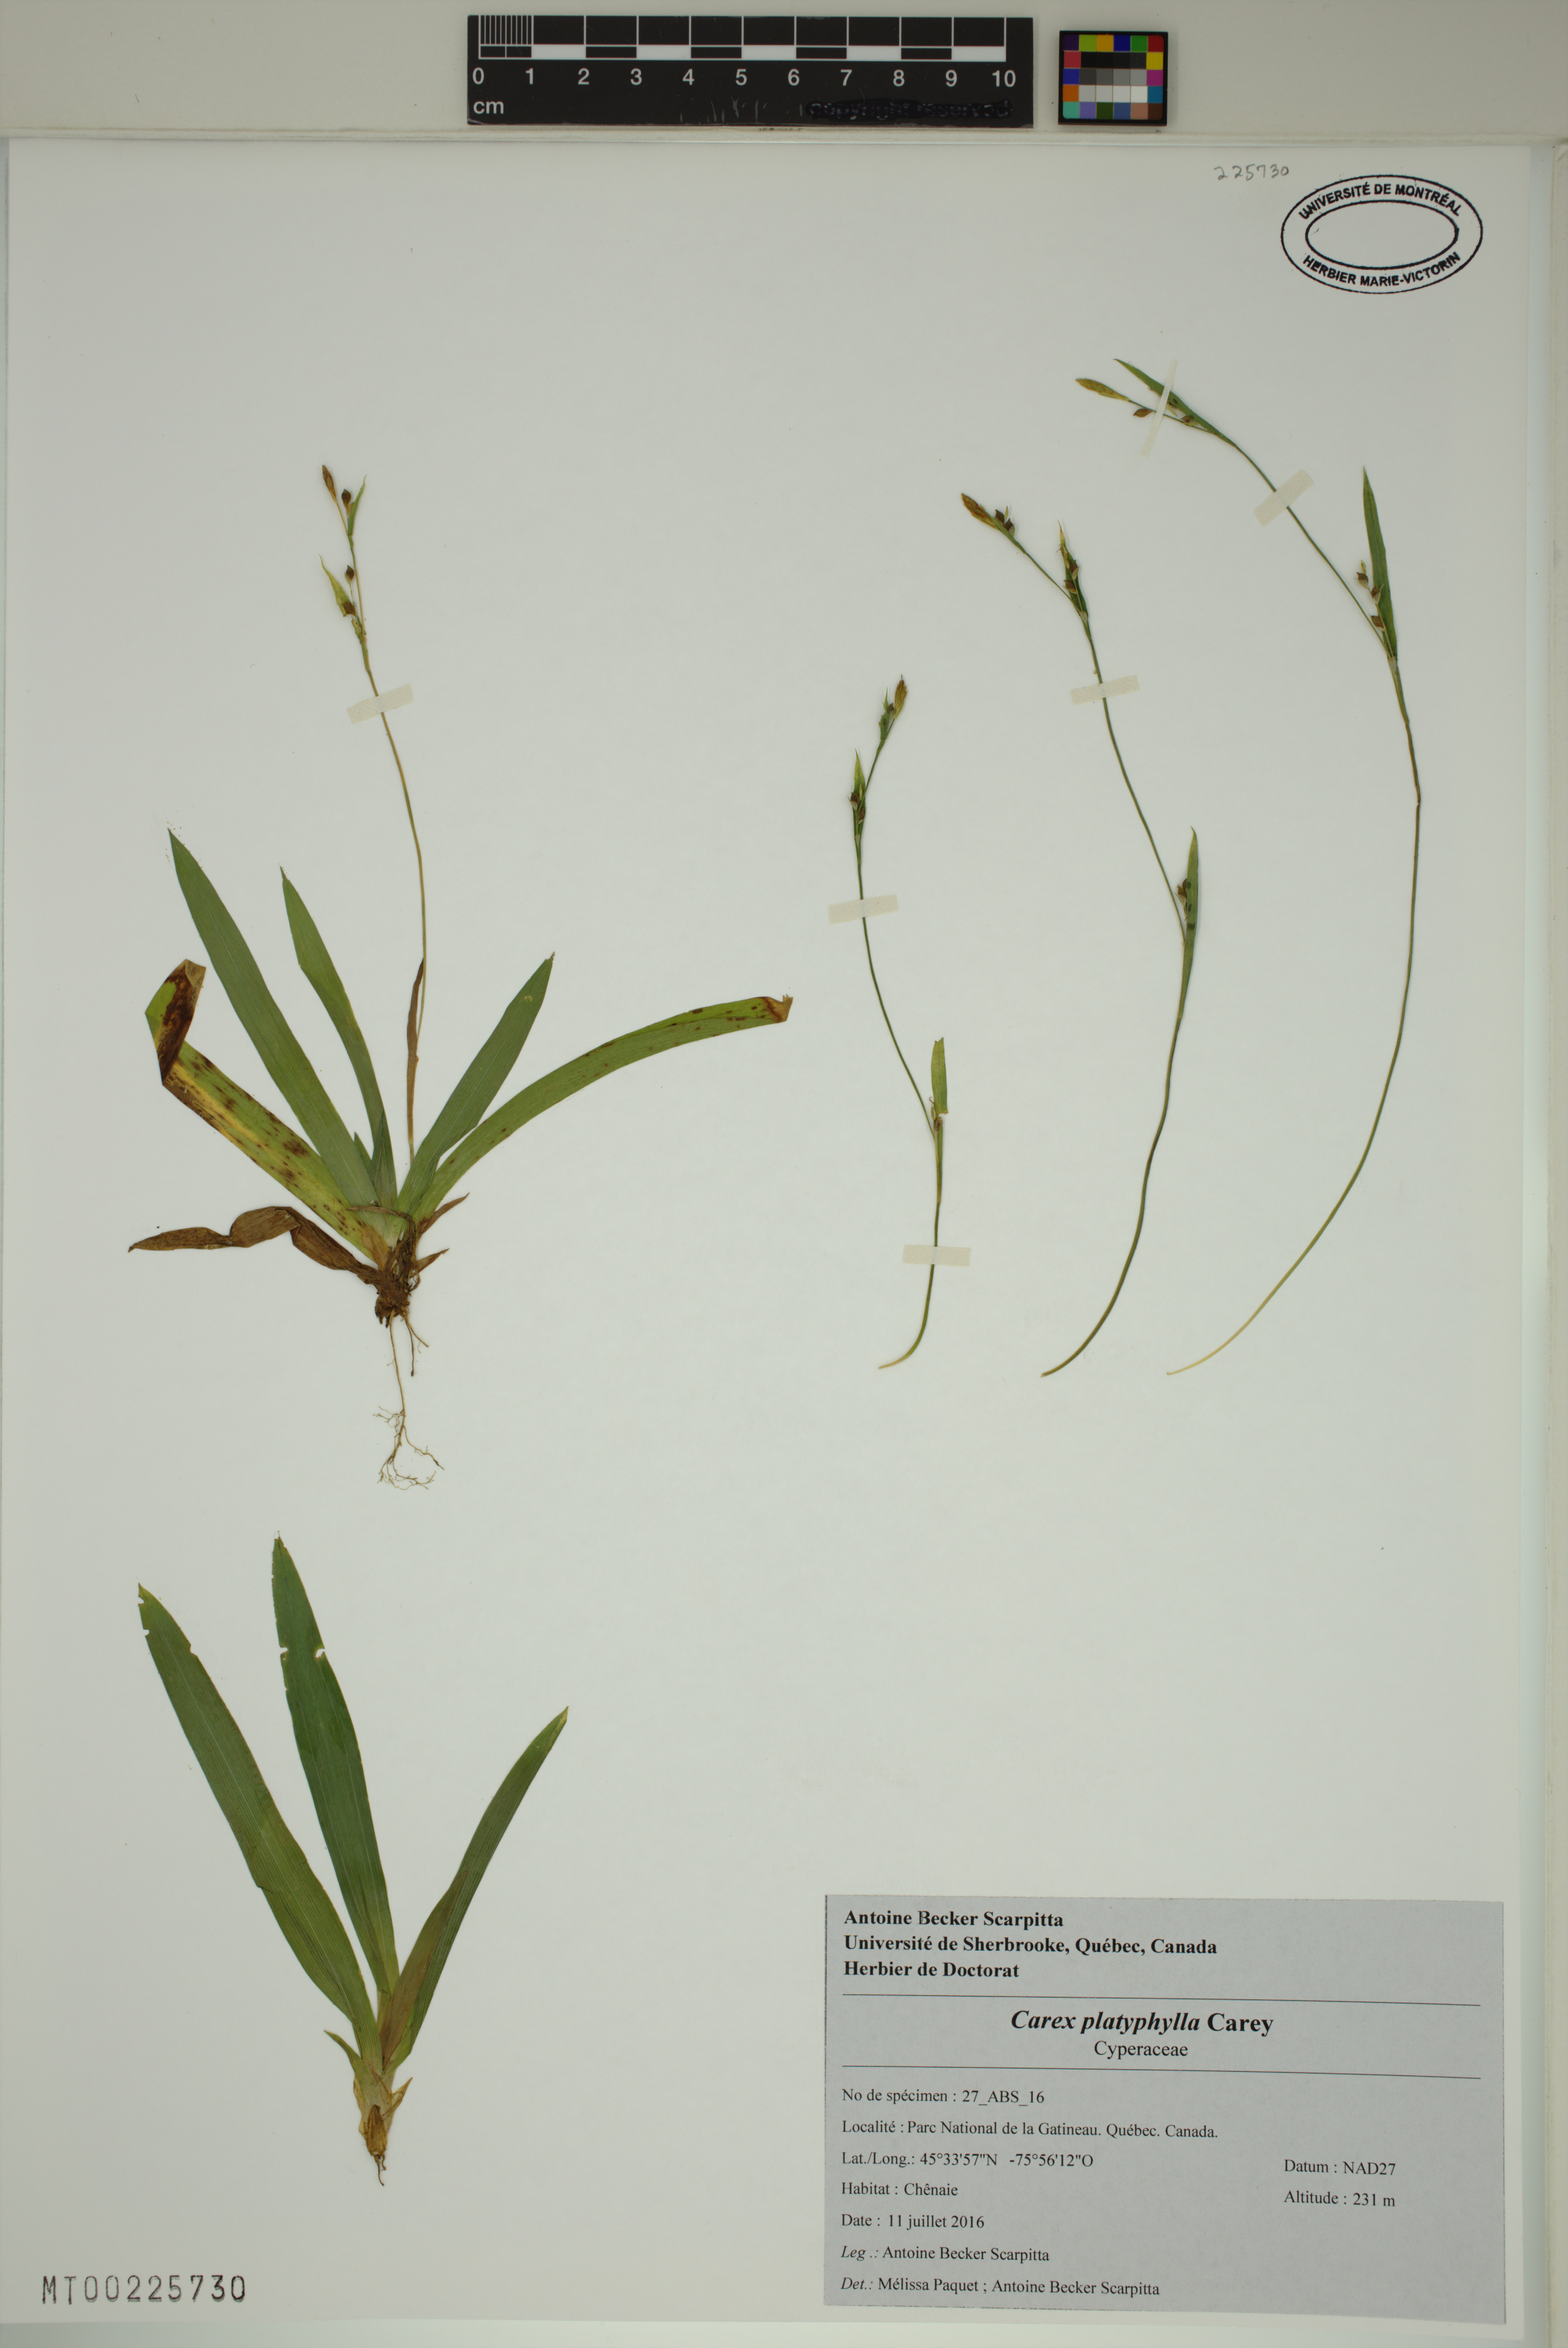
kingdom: Plantae
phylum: Tracheophyta
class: Liliopsida
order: Poales
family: Cyperaceae
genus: Carex
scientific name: Carex platyphylla
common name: Broad-leaved sedge
